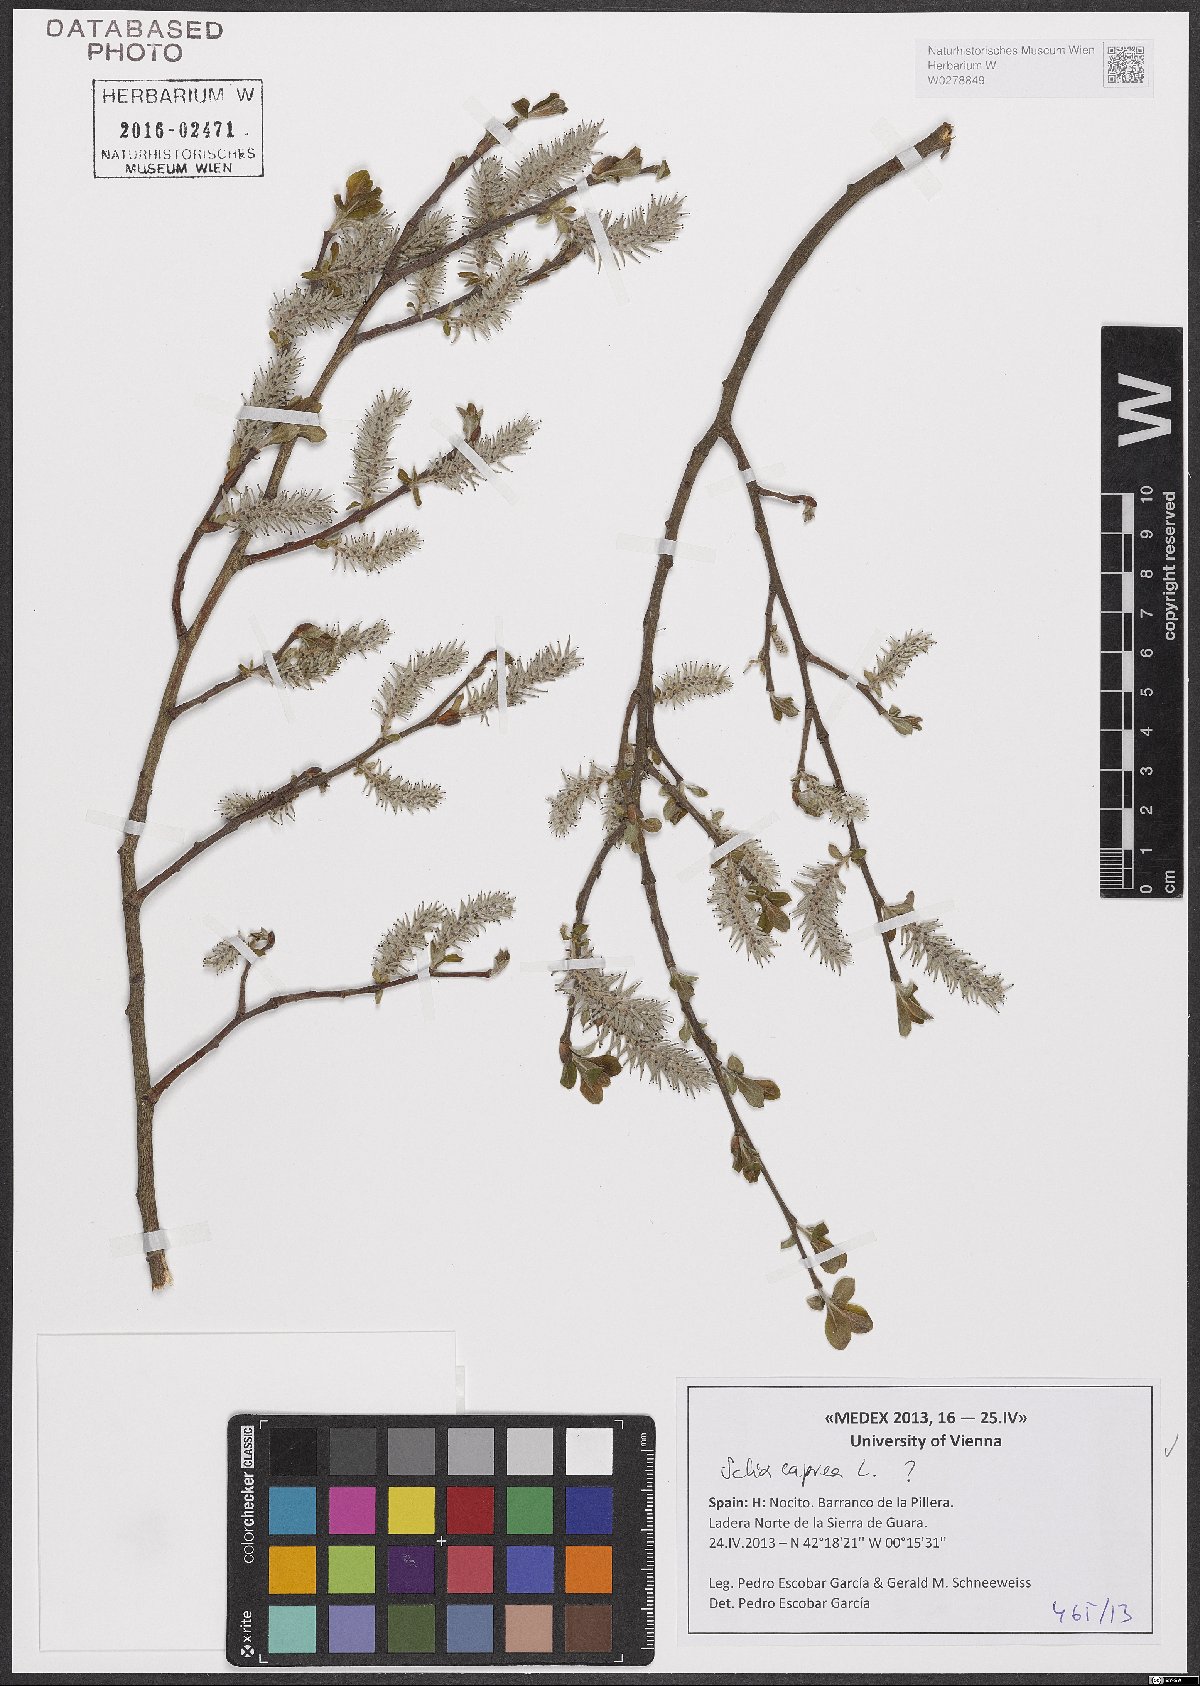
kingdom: Plantae
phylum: Tracheophyta
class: Magnoliopsida
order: Malpighiales
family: Salicaceae
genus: Salix
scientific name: Salix caprea
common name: Goat willow
